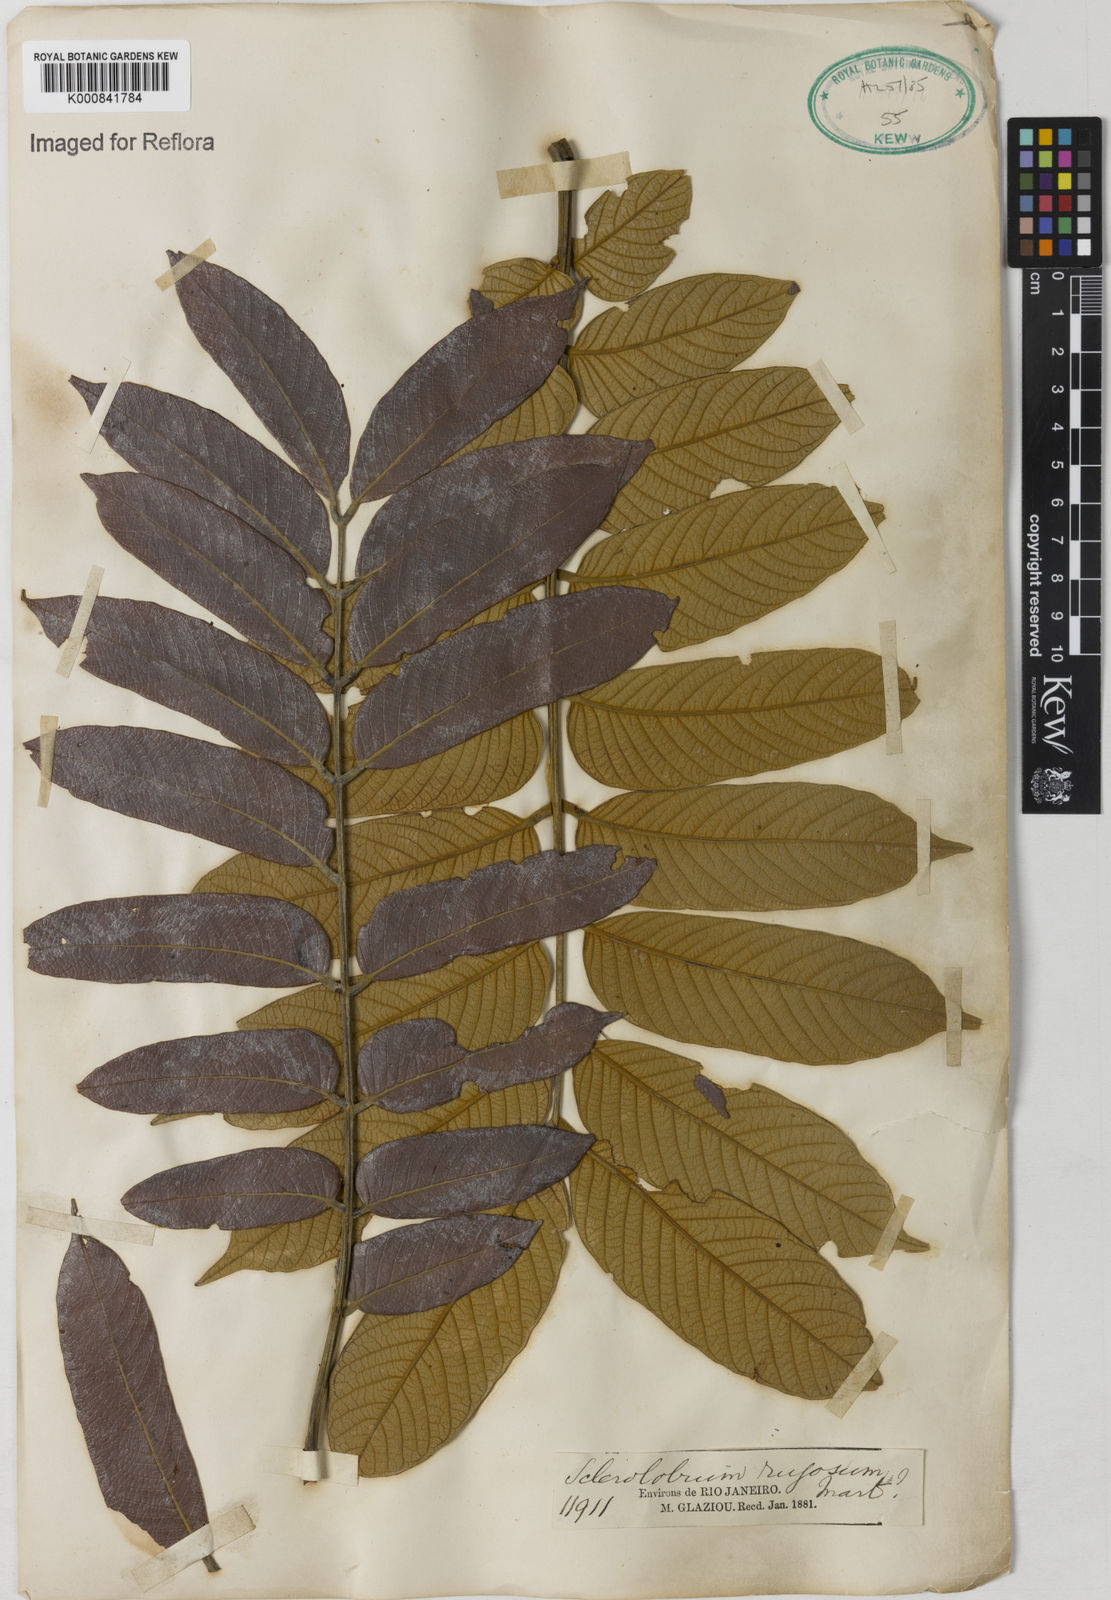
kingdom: Plantae
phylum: Tracheophyta
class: Magnoliopsida
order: Fabales
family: Fabaceae
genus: Tachigali
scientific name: Tachigali rugosa
